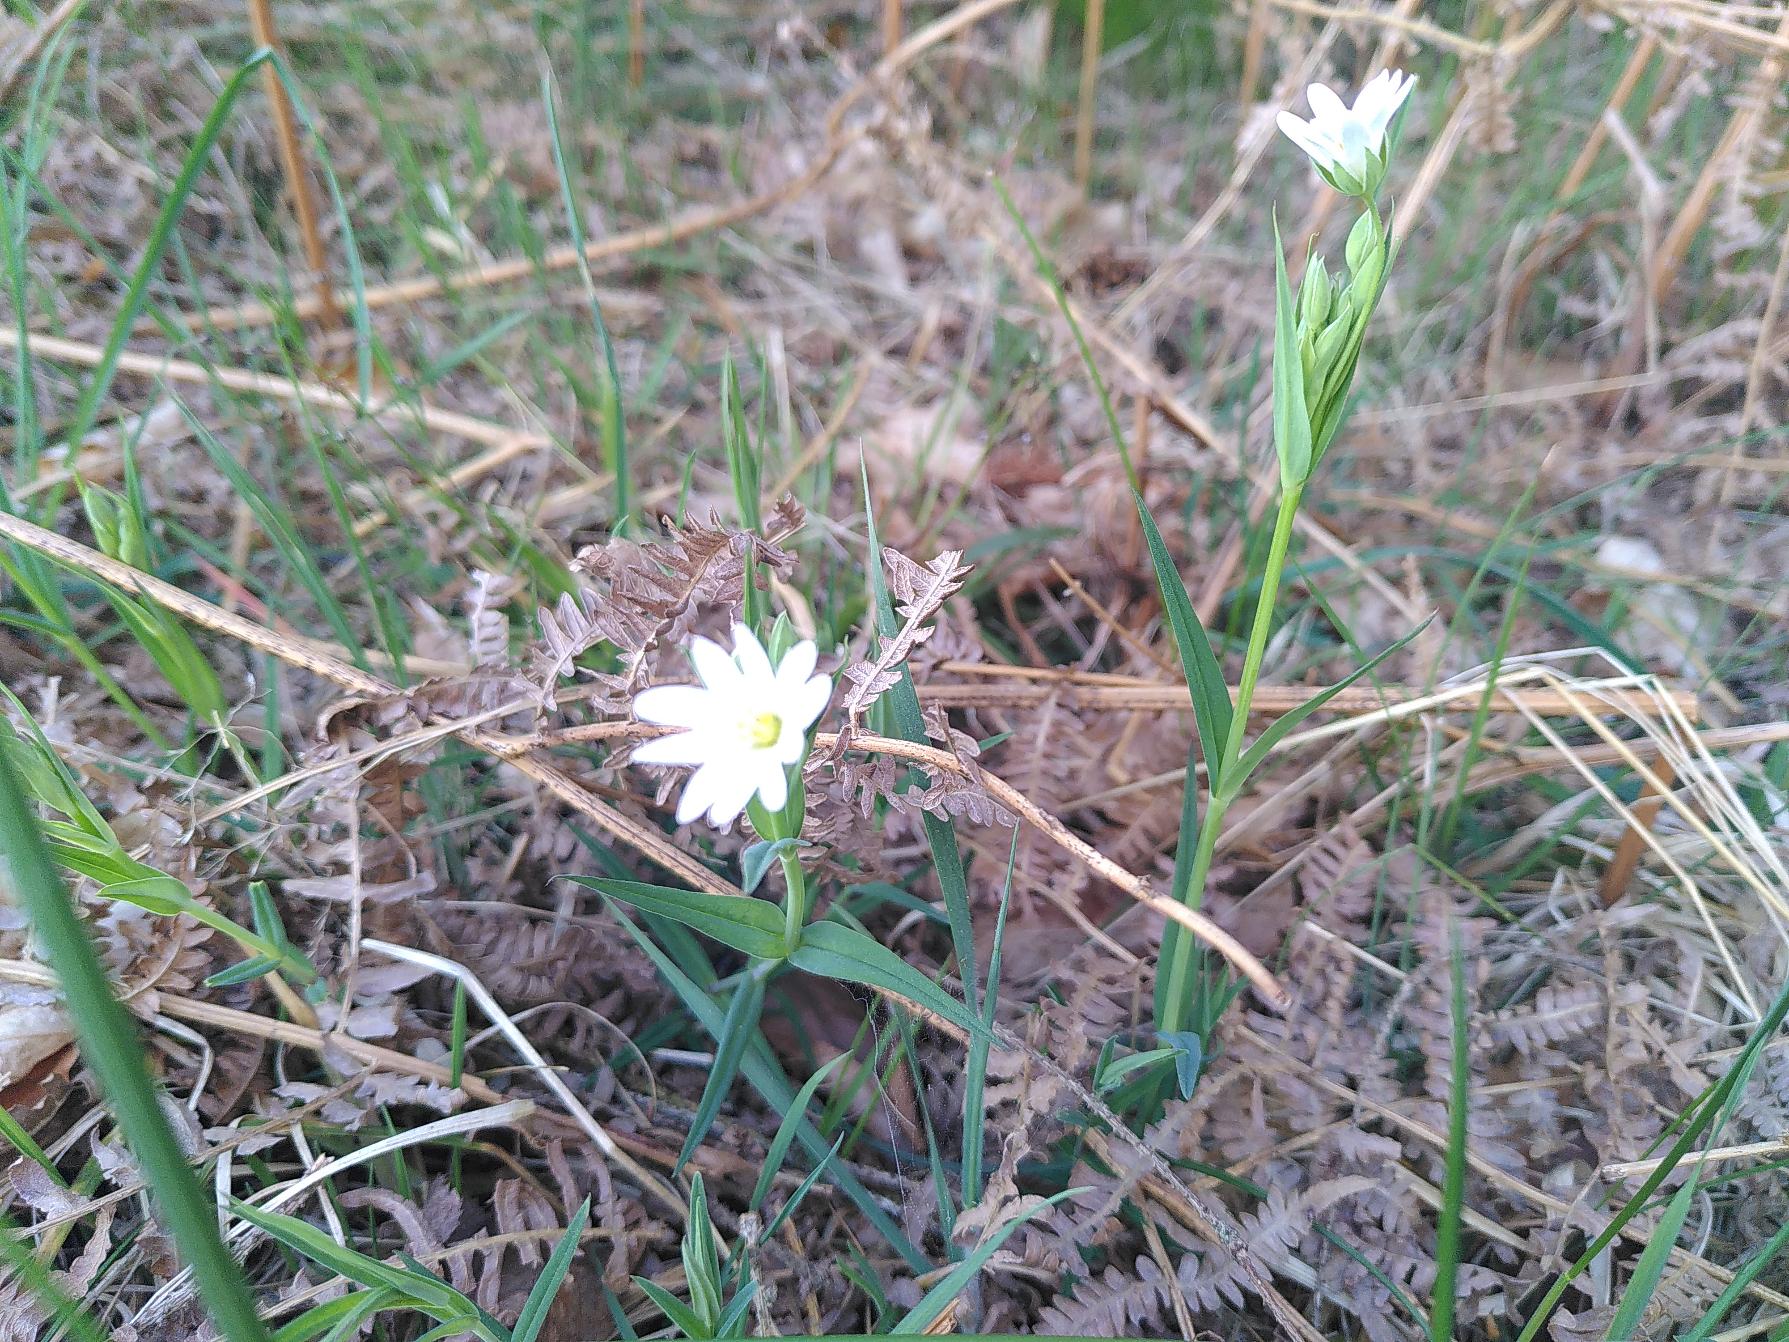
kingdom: Plantae
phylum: Tracheophyta
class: Magnoliopsida
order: Caryophyllales
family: Caryophyllaceae
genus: Rabelera
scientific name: Rabelera holostea
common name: Stor fladstjerne
